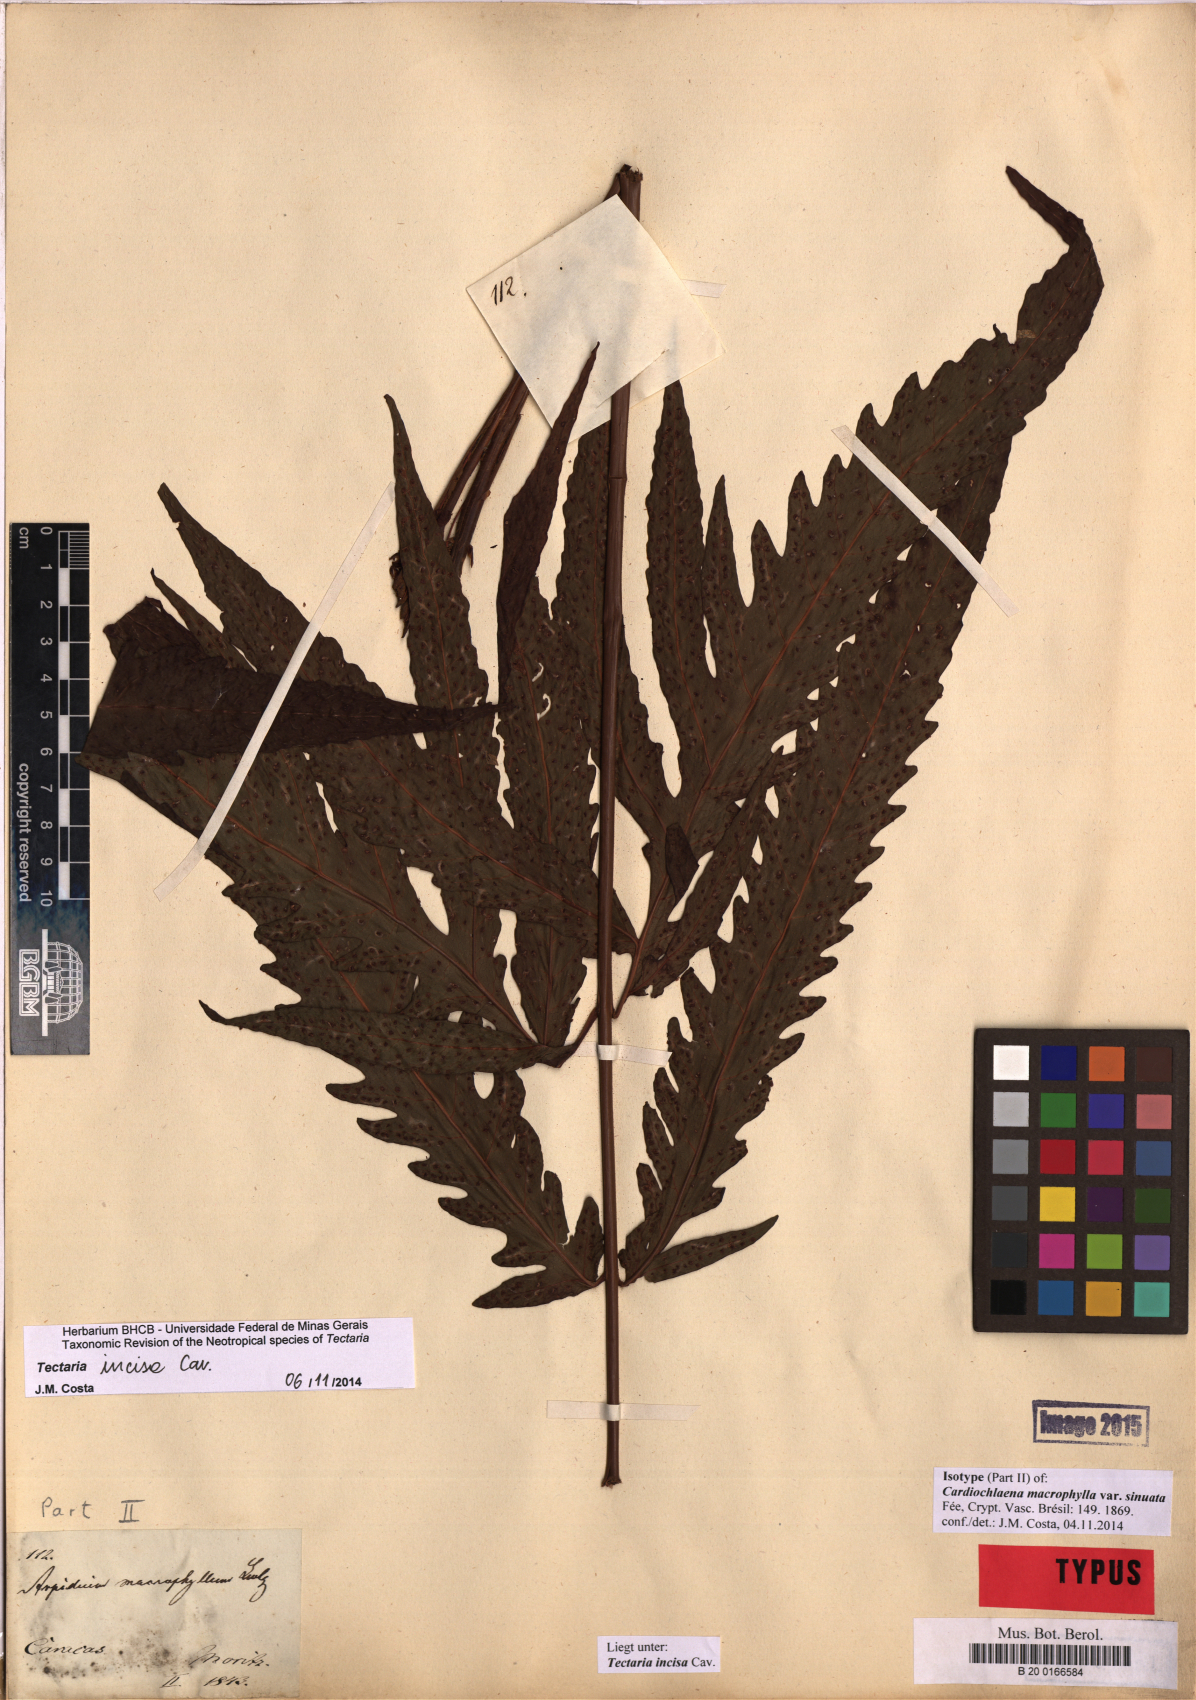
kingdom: Plantae
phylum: Tracheophyta
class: Polypodiopsida
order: Polypodiales
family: Tectariaceae
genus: Tectaria
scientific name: Tectaria incisa
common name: Incised halberd fern
